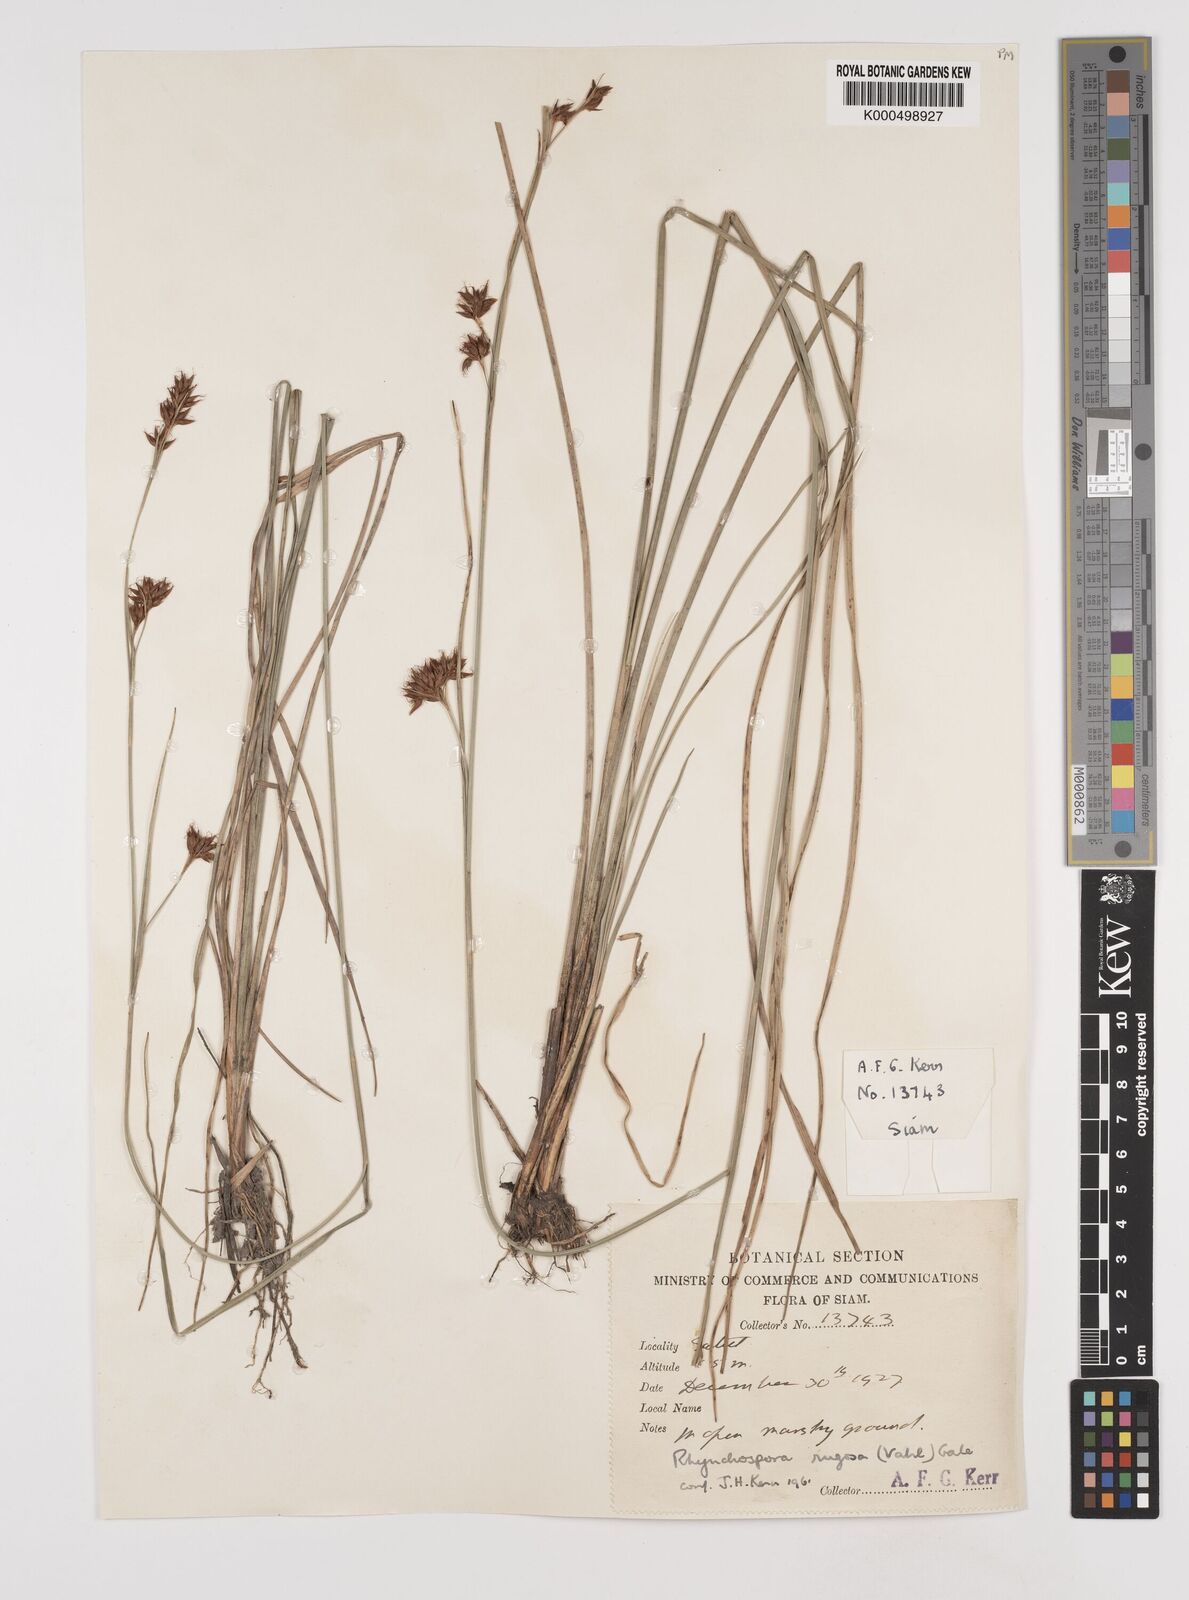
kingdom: Plantae
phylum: Tracheophyta
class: Liliopsida
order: Poales
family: Cyperaceae
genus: Rhynchospora
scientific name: Rhynchospora chinensis
